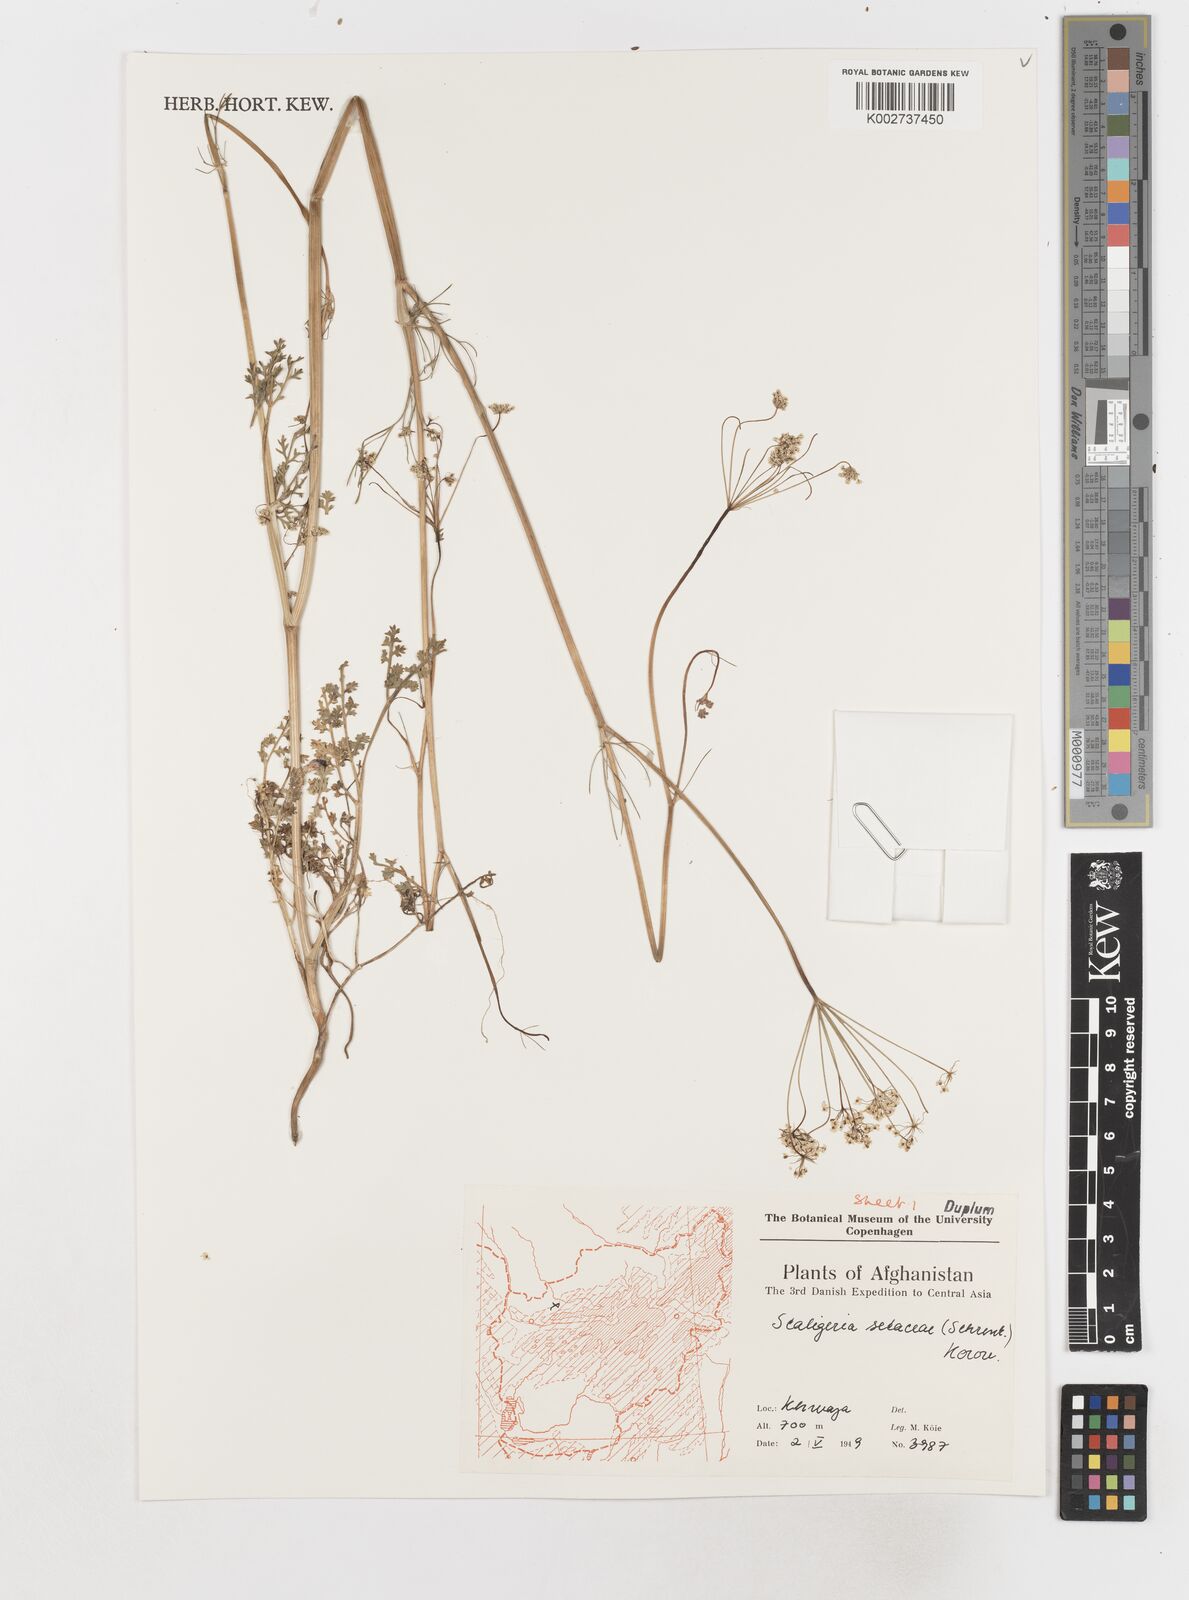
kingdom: Plantae
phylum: Tracheophyta
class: Magnoliopsida
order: Apiales
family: Apiaceae
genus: Elwendia
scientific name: Elwendia setacea
